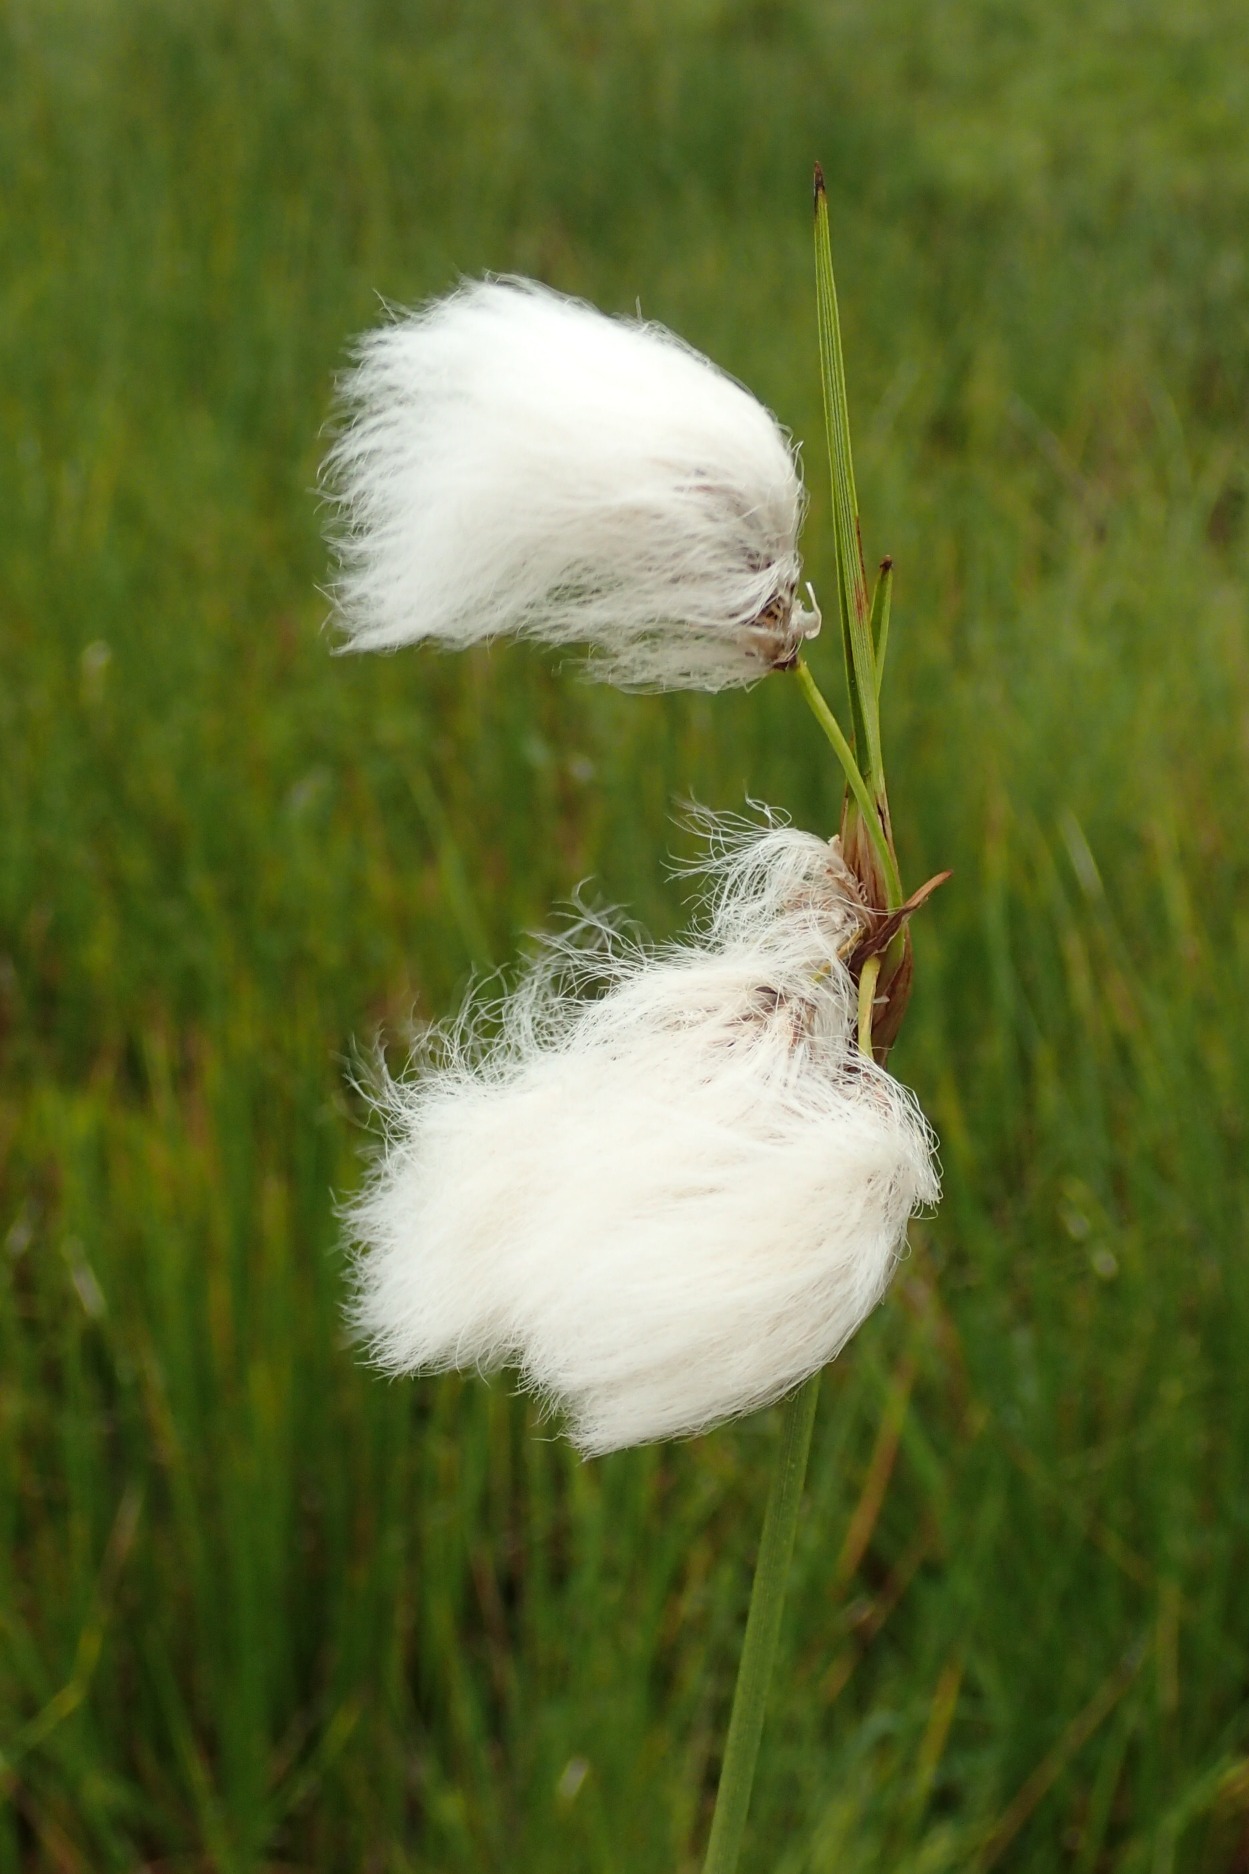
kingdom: Plantae
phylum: Tracheophyta
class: Liliopsida
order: Poales
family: Cyperaceae
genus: Eriophorum
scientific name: Eriophorum angustifolium
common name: Smalbladet kæruld
